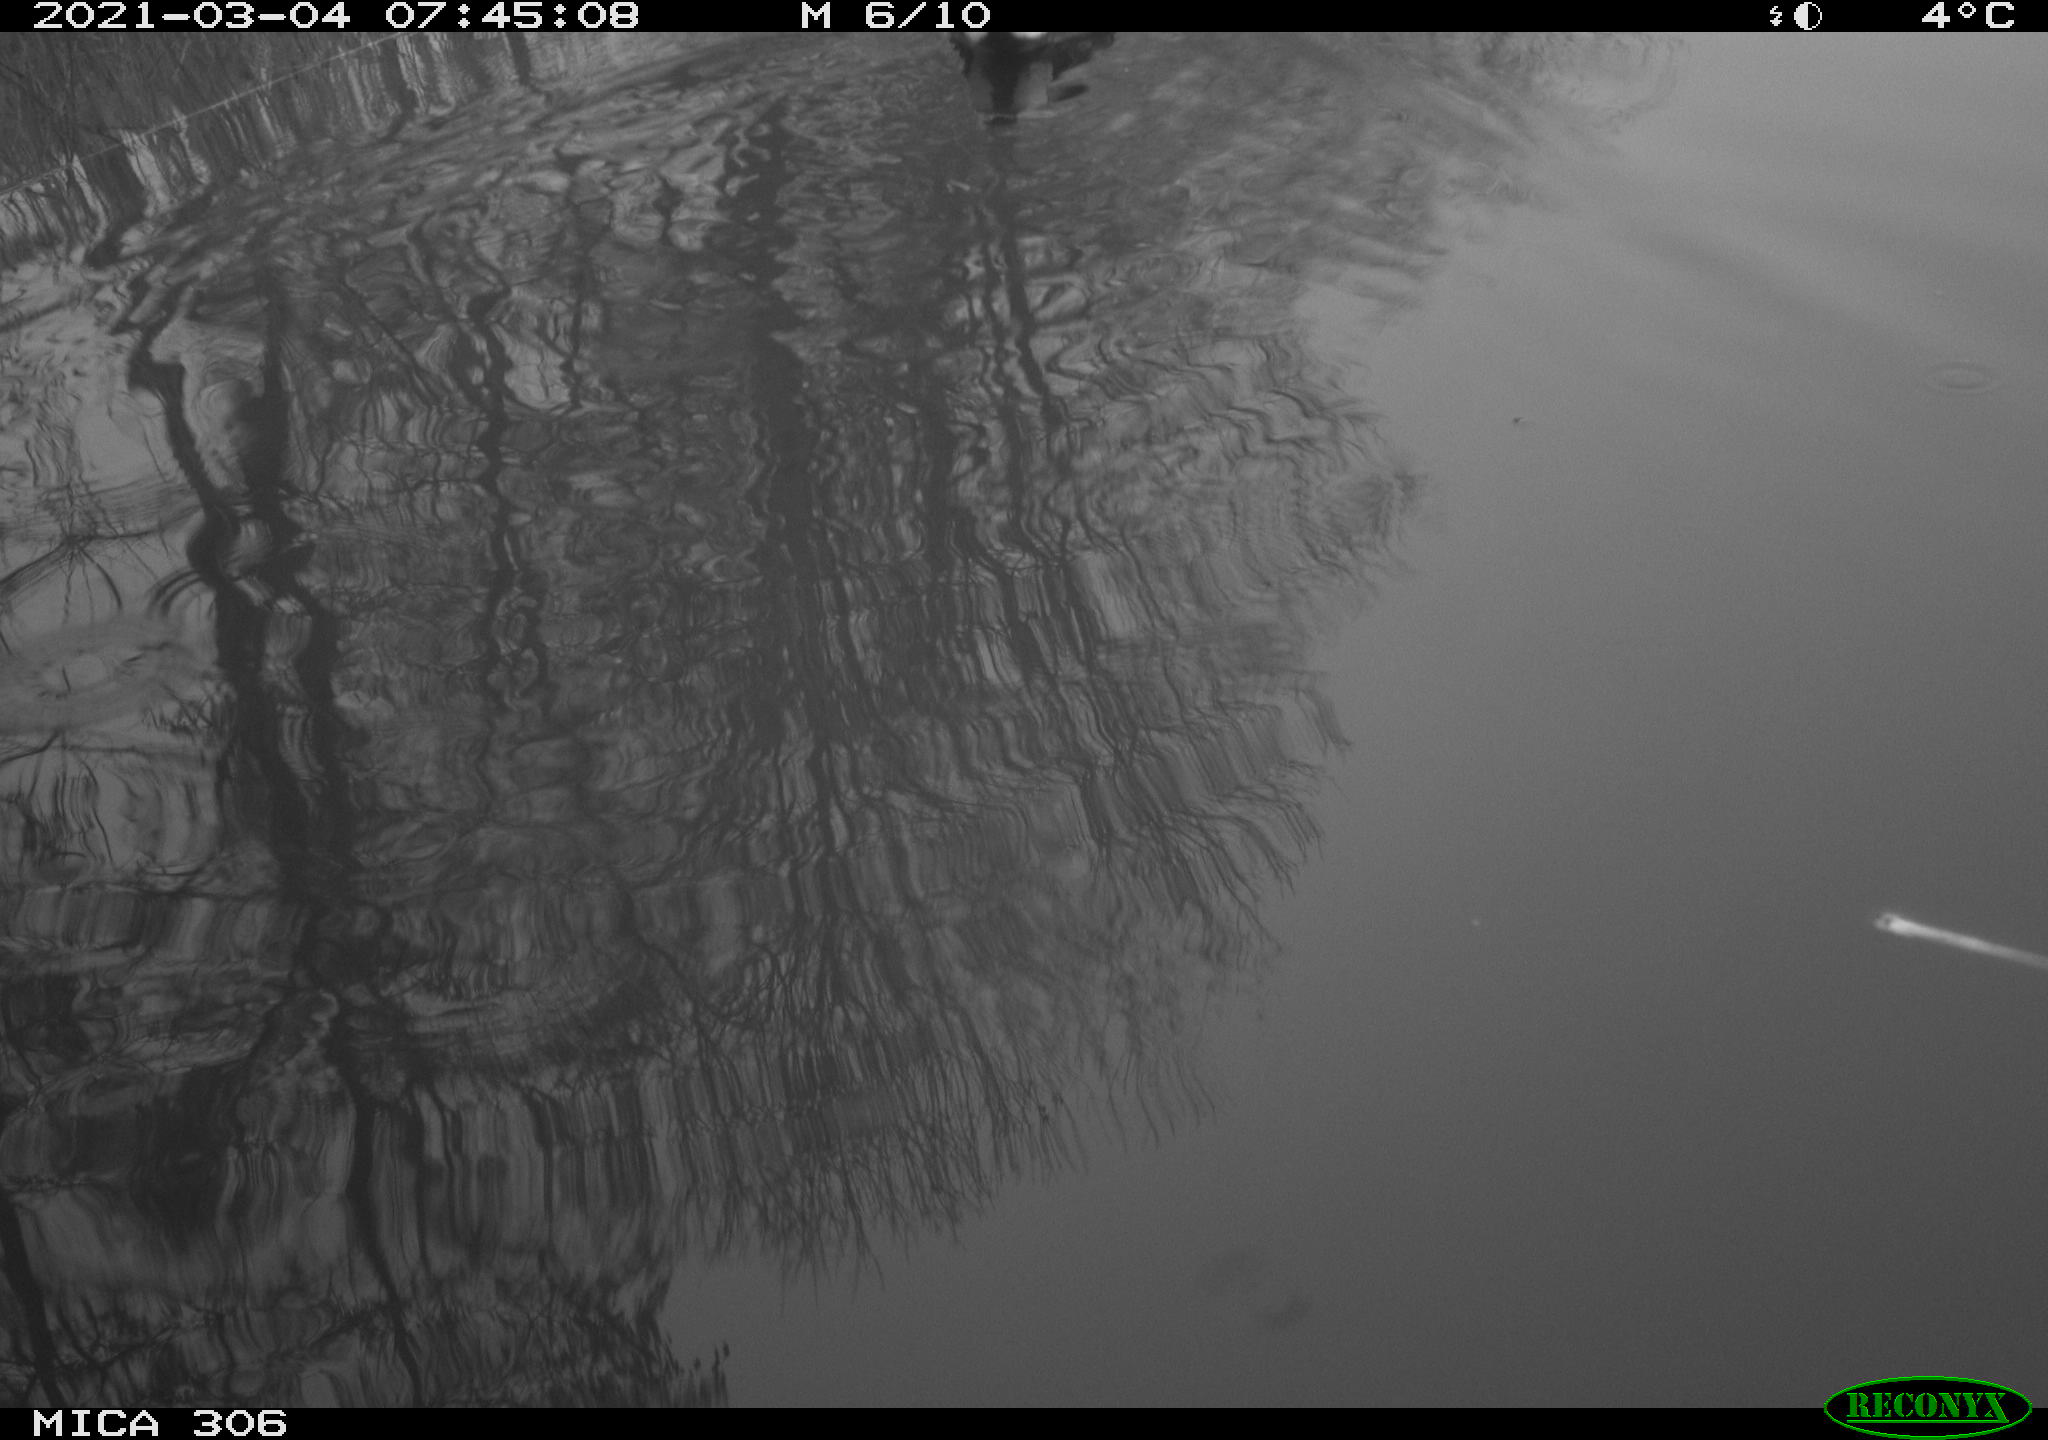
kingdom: Animalia
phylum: Chordata
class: Aves
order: Gruiformes
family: Rallidae
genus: Gallinula
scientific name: Gallinula chloropus
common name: Common moorhen
